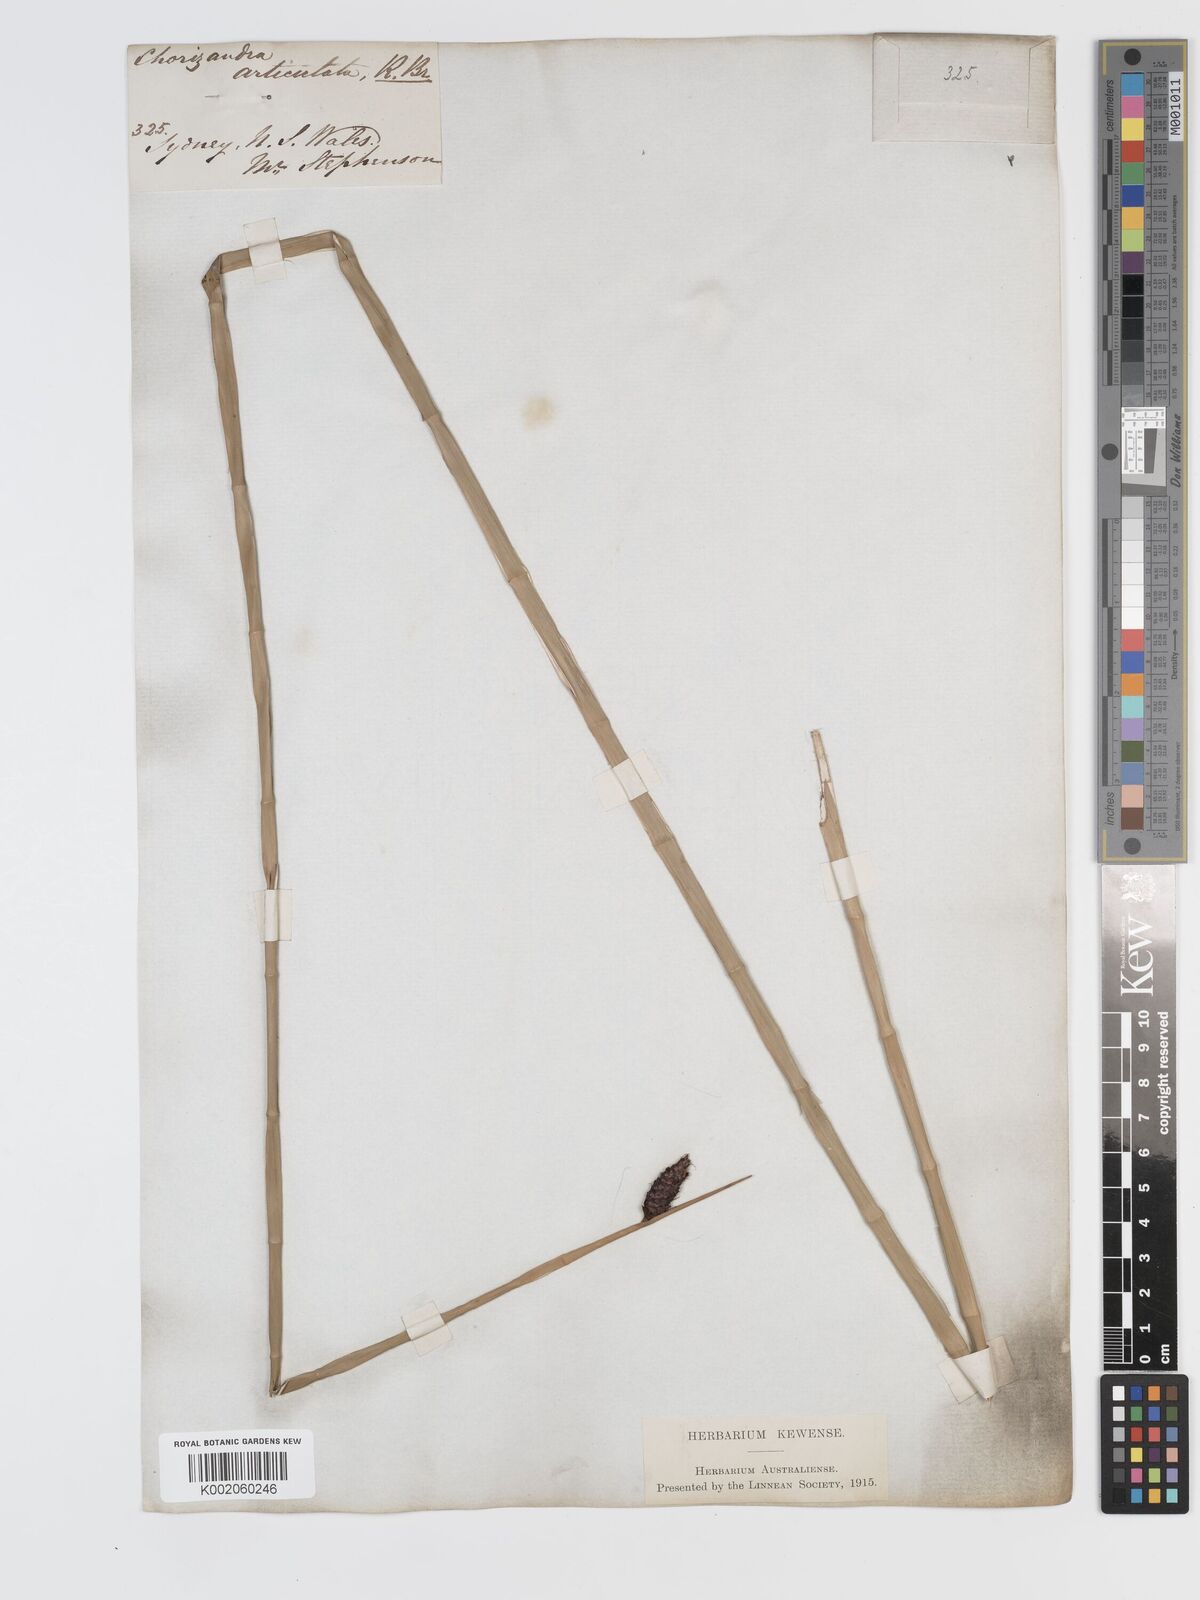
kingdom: Plantae
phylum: Tracheophyta
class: Liliopsida
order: Poales
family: Cyperaceae
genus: Lepironia
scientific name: Lepironia articulata
